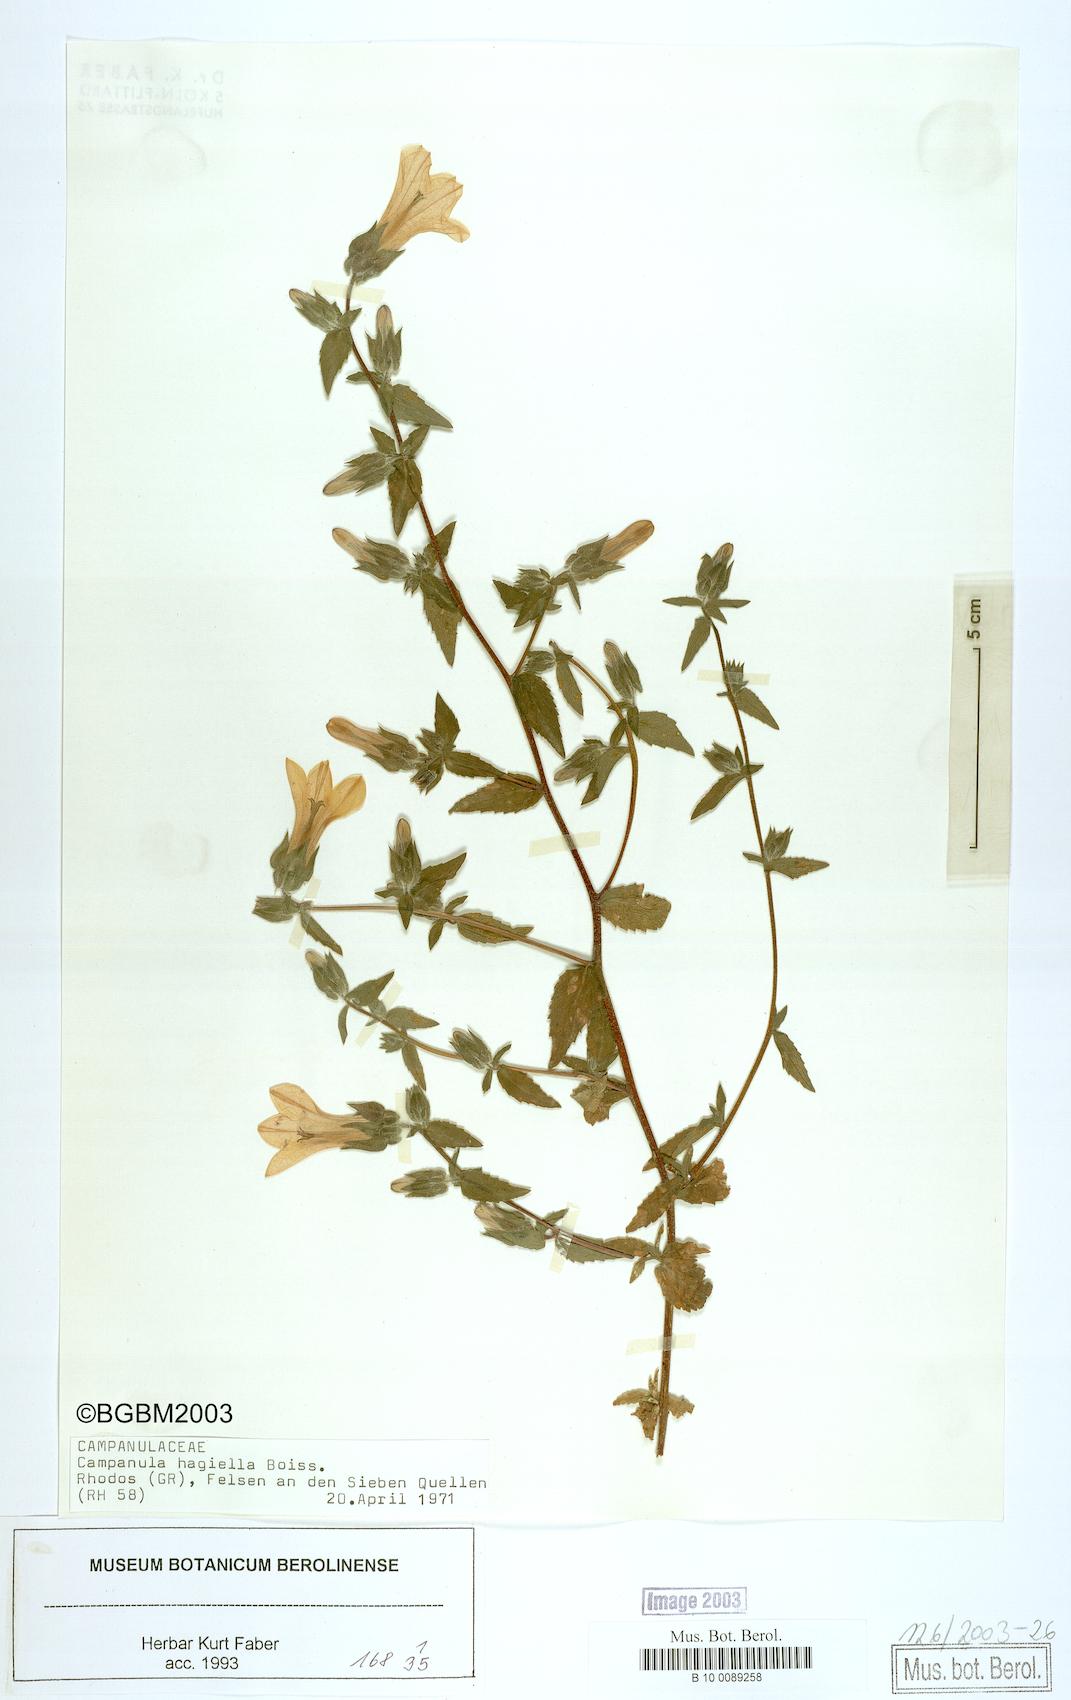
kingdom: Plantae
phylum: Tracheophyta
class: Magnoliopsida
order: Asterales
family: Campanulaceae
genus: Campanula
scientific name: Campanula hagielia
